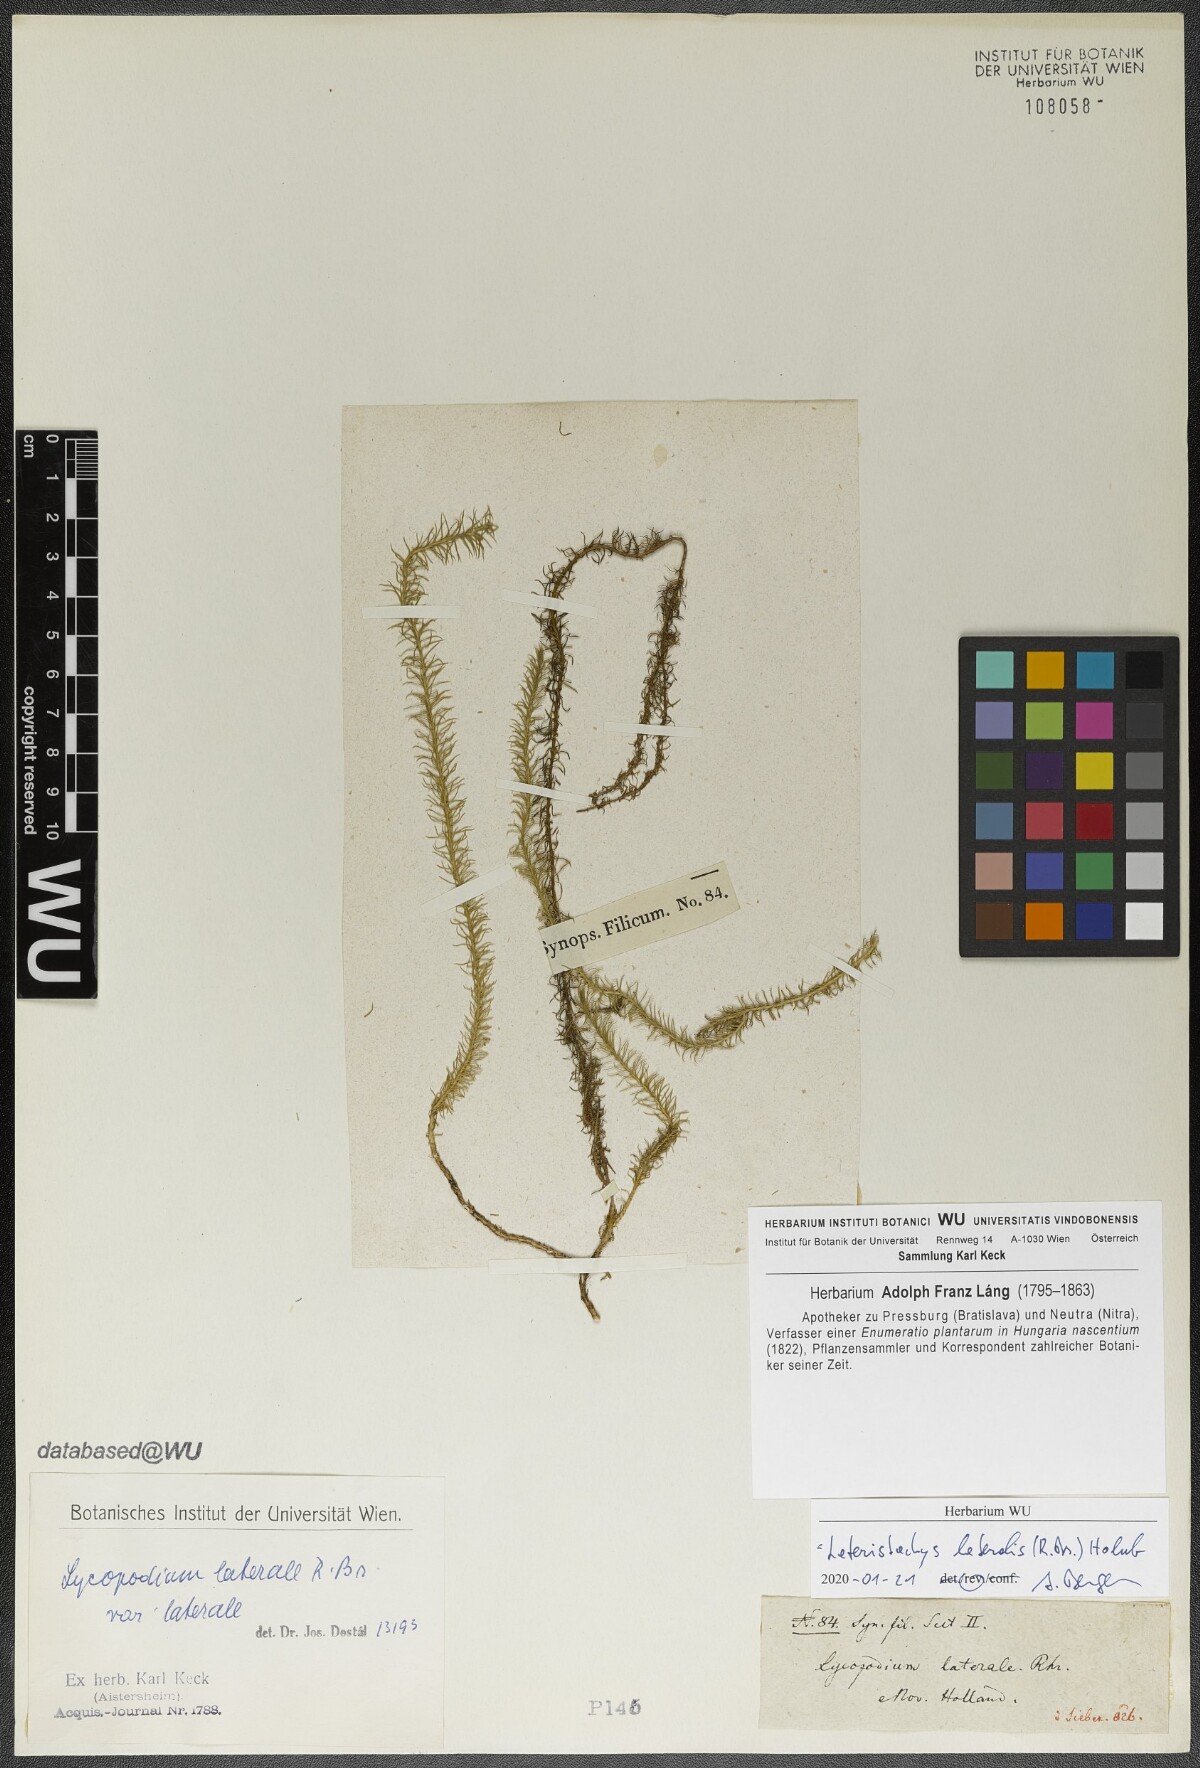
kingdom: Plantae
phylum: Tracheophyta
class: Lycopodiopsida
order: Lycopodiales
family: Lycopodiaceae
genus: Lateristachys
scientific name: Lateristachys lateralis
